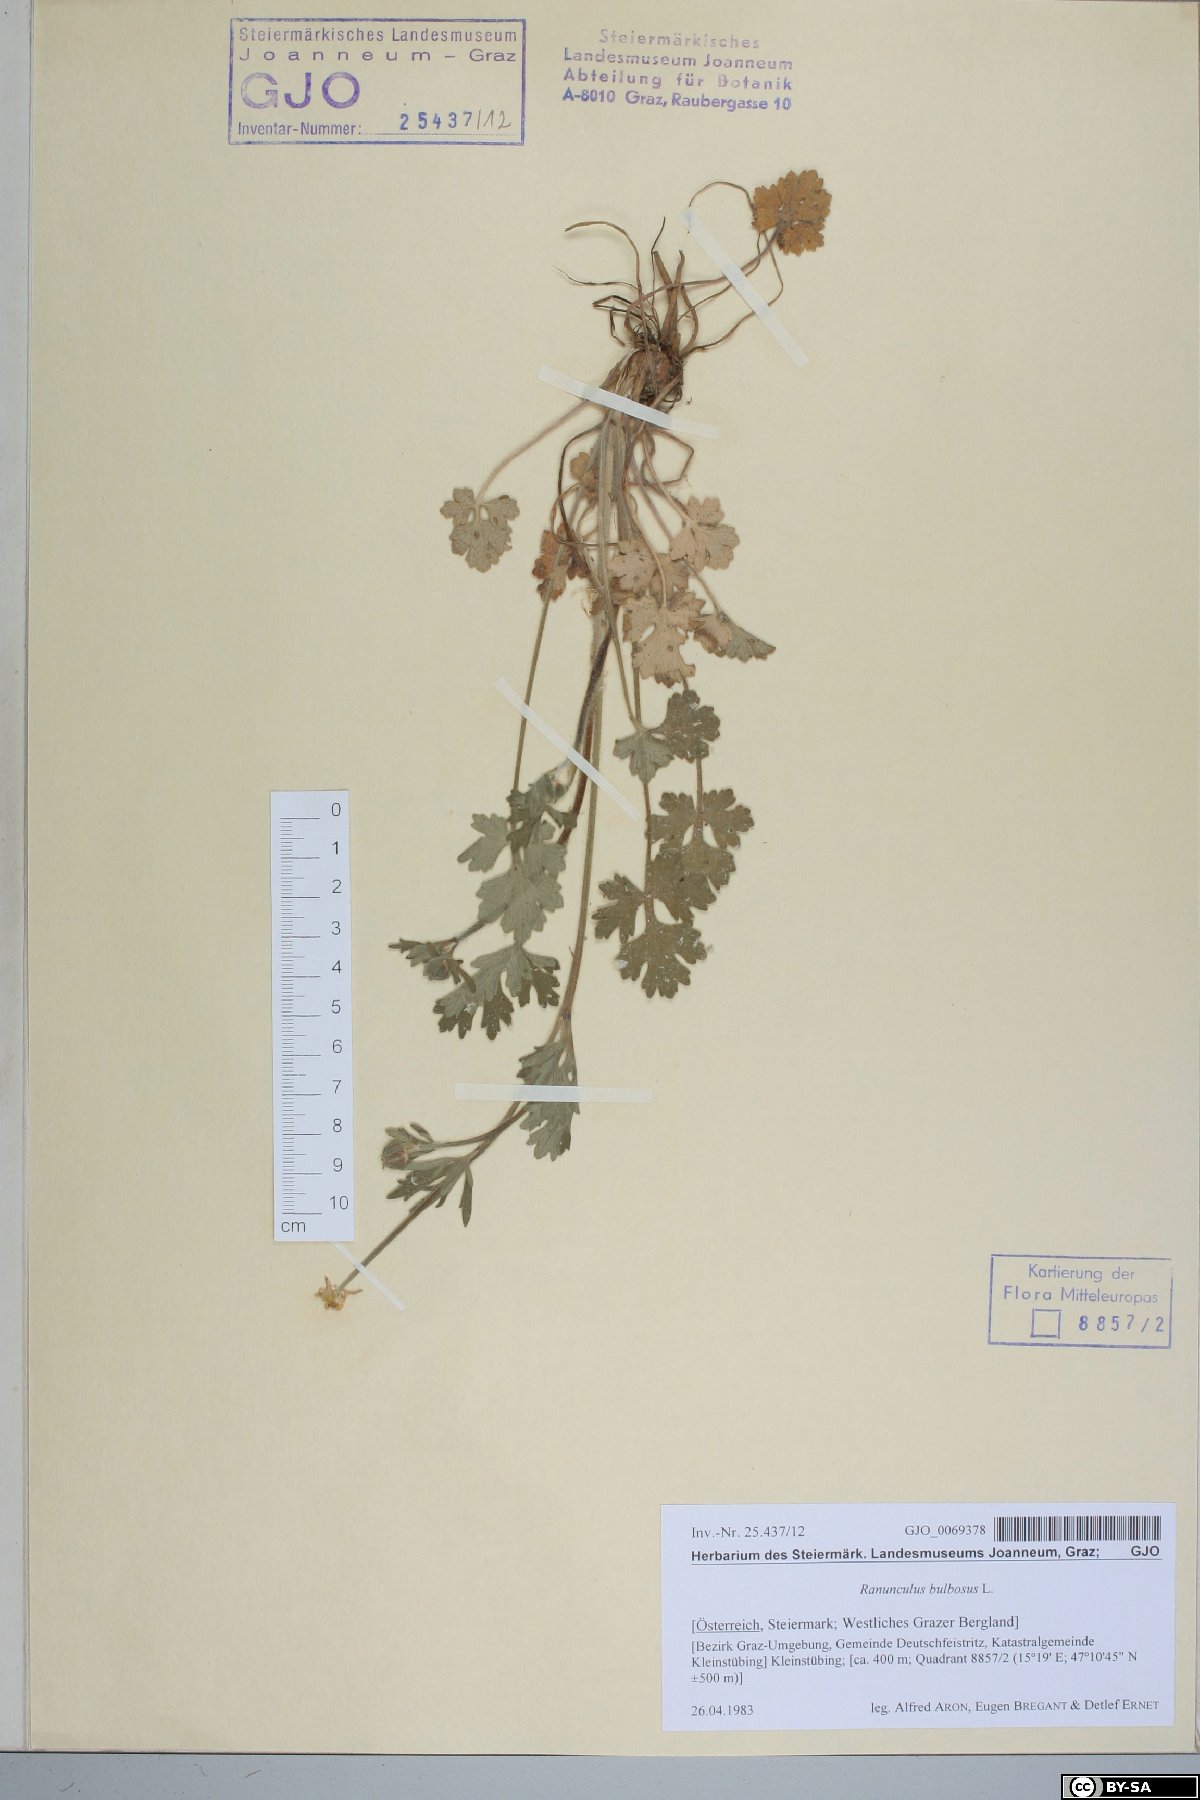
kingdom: Plantae
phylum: Tracheophyta
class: Magnoliopsida
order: Ranunculales
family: Ranunculaceae
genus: Ranunculus
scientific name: Ranunculus bulbosus
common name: Bulbous buttercup
